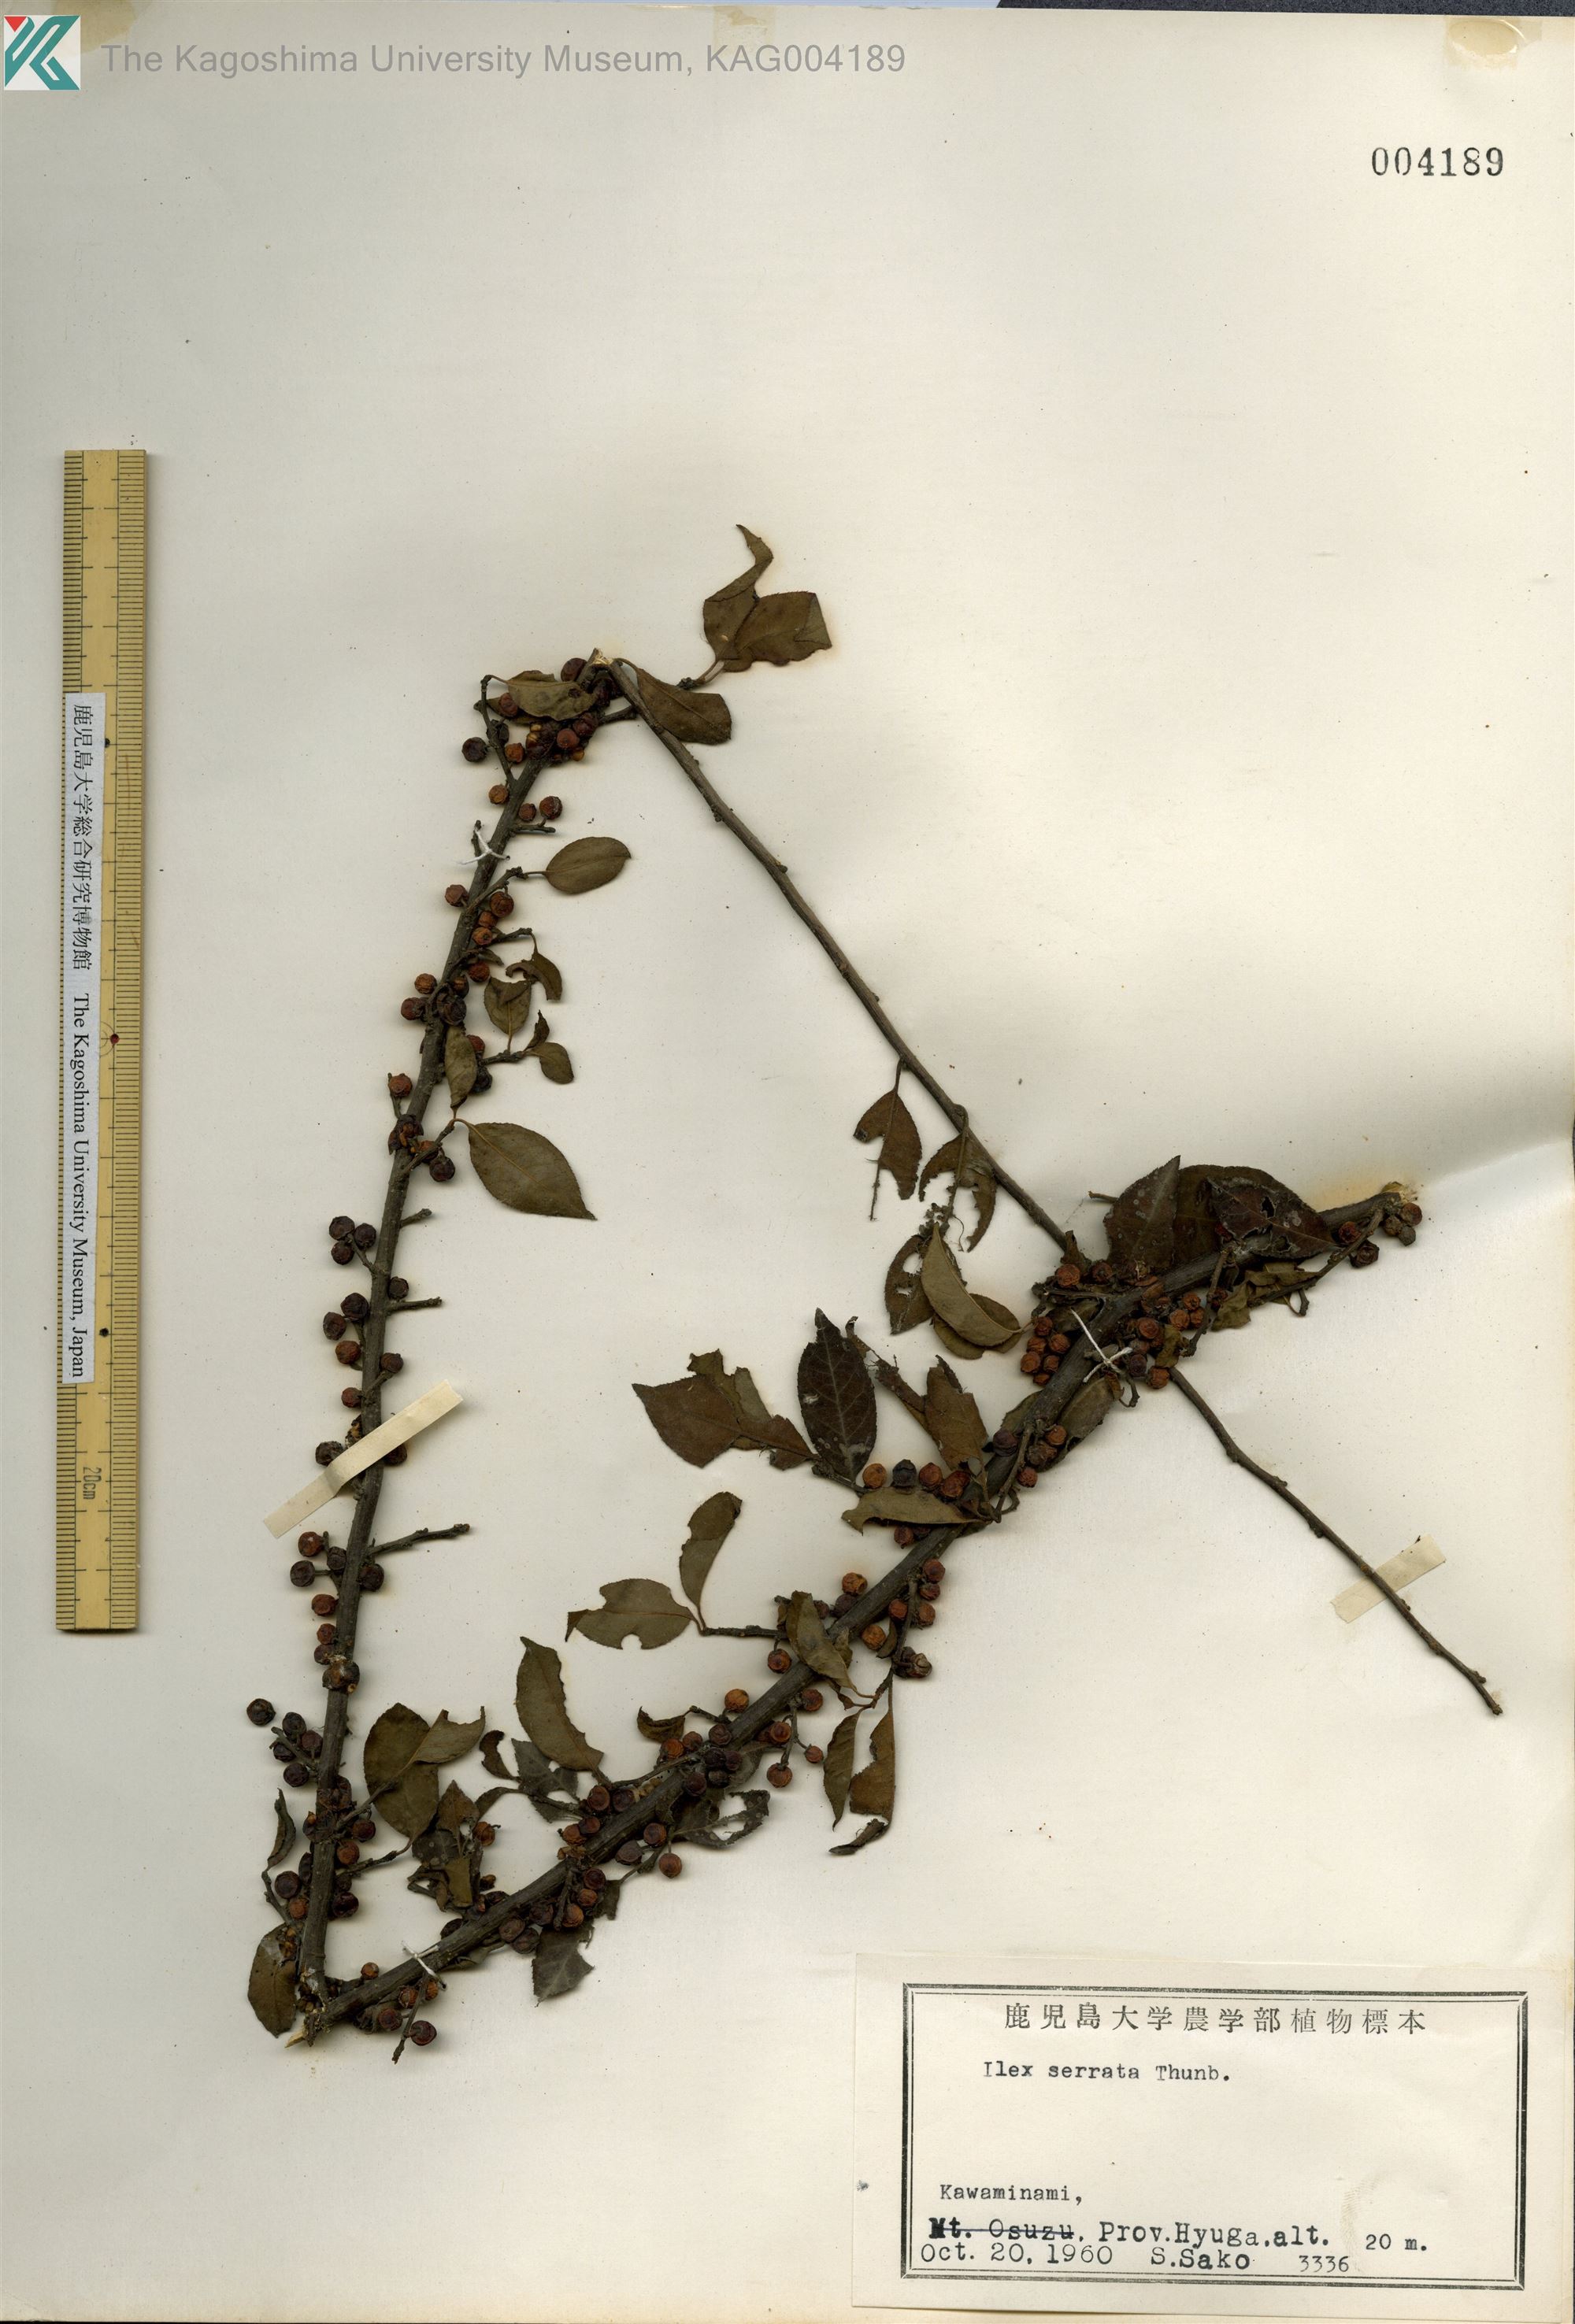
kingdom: Plantae
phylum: Tracheophyta
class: Magnoliopsida
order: Aquifoliales
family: Aquifoliaceae
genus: Ilex
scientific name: Ilex serrata
